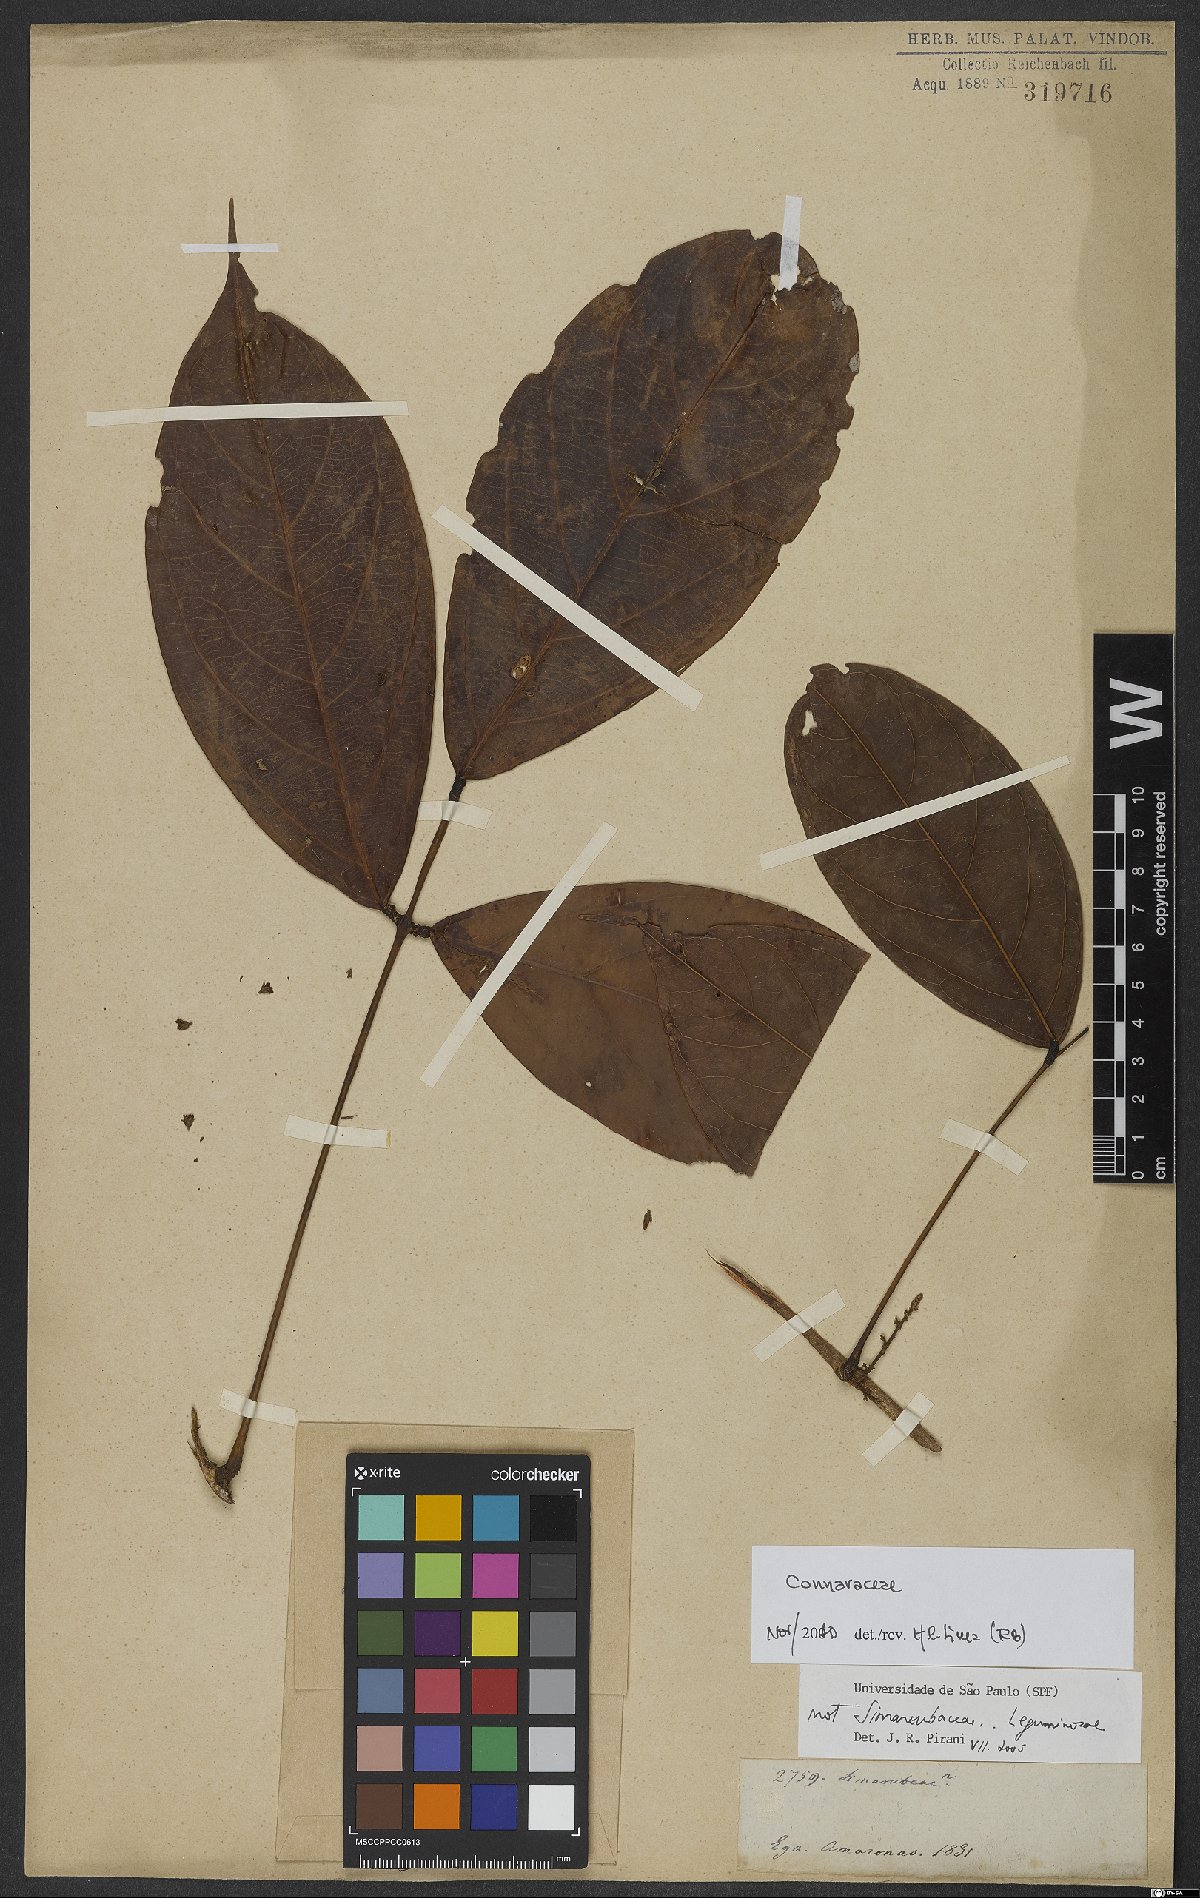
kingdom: Plantae
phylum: Tracheophyta
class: Magnoliopsida
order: Oxalidales
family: Connaraceae
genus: Connarus
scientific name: Connarus
